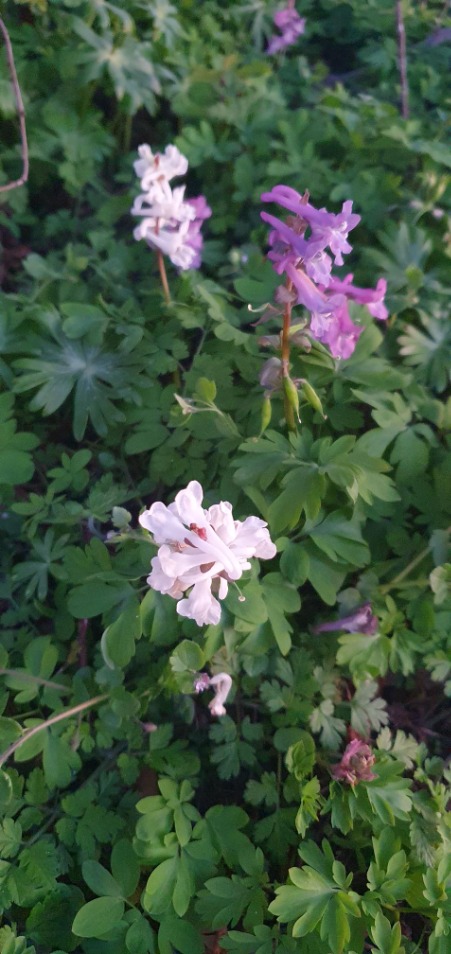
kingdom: Plantae
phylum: Tracheophyta
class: Magnoliopsida
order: Ranunculales
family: Papaveraceae
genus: Corydalis
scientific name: Corydalis cava
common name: Hulrodet lærkespore
